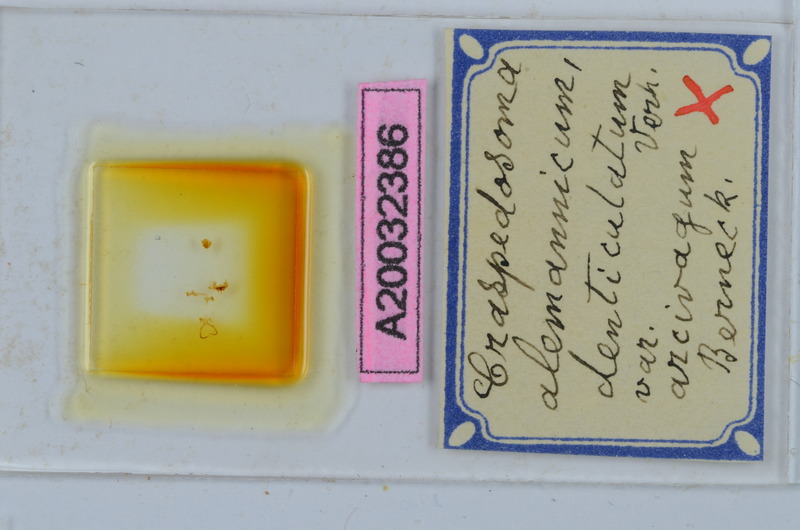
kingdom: Animalia
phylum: Arthropoda
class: Diplopoda
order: Chordeumatida
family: Craspedosomatidae
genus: Craspedosoma
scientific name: Craspedosoma rawlinsii
